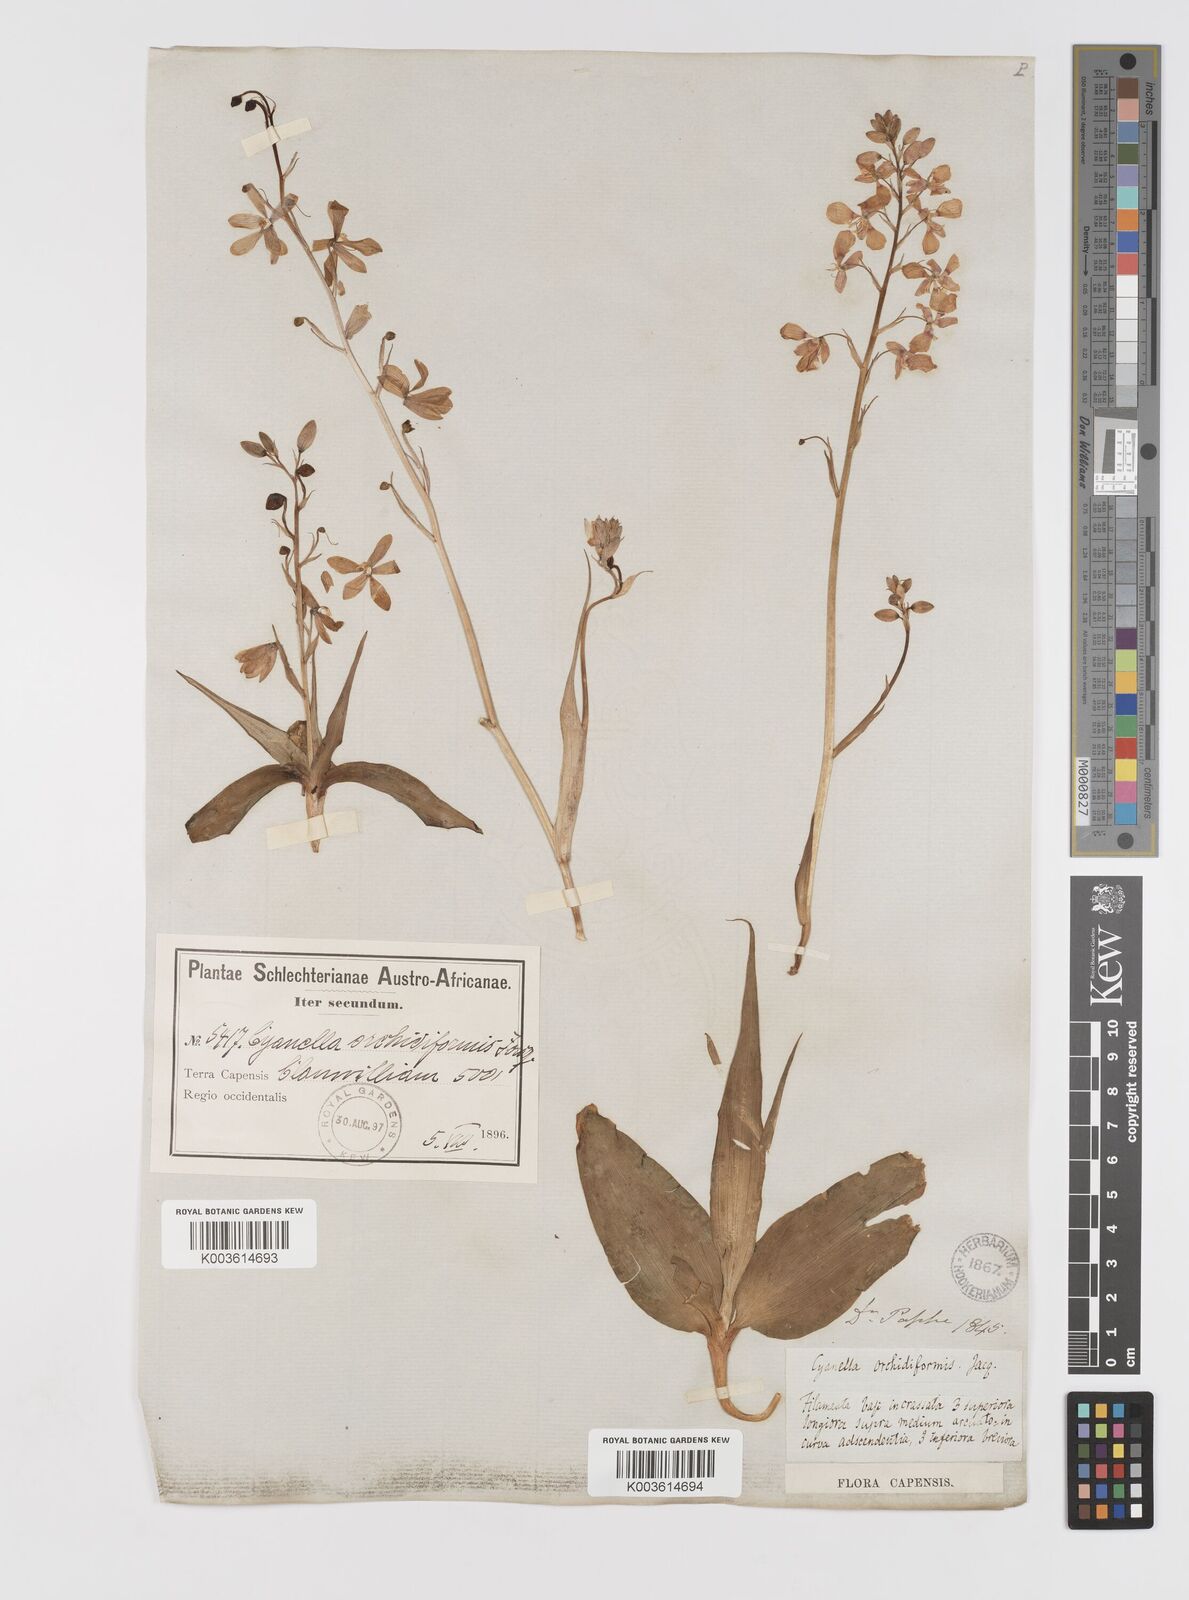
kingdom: Plantae
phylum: Tracheophyta
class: Liliopsida
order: Asparagales
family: Tecophilaeaceae
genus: Cyanella
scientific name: Cyanella orchidiformis
